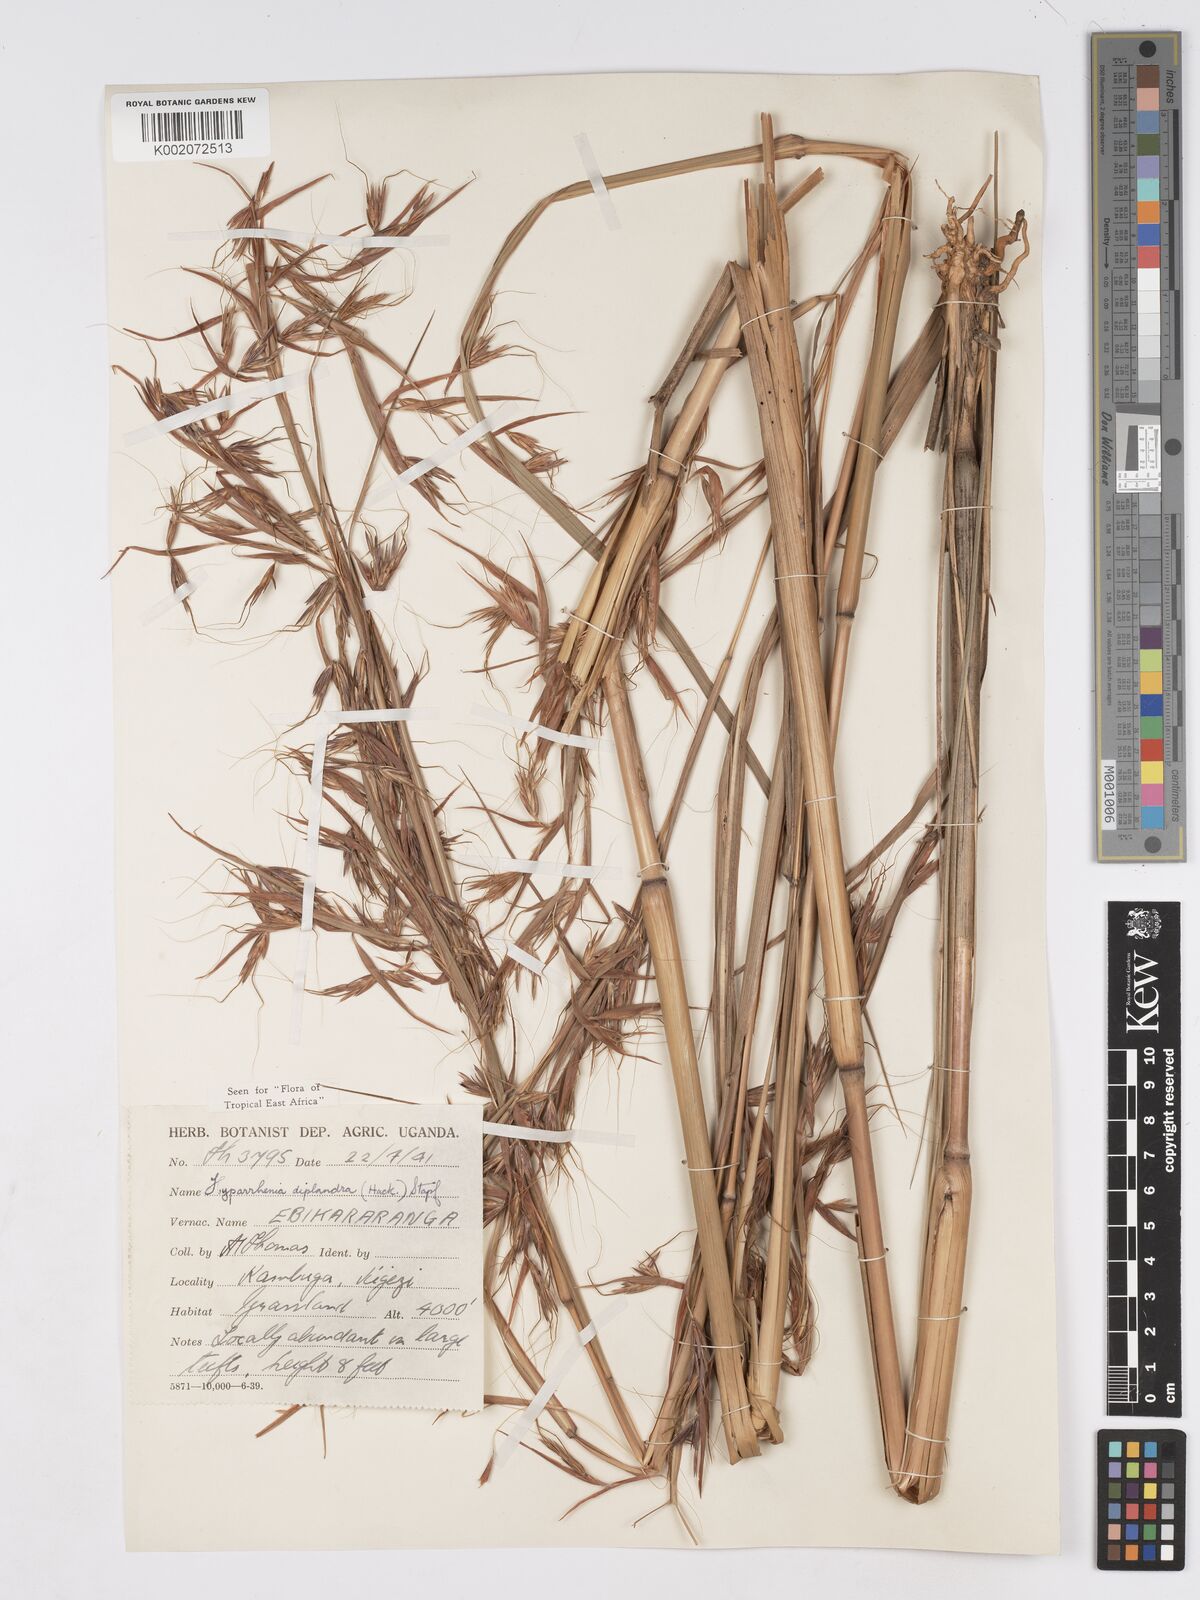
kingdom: Plantae
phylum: Tracheophyta
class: Liliopsida
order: Poales
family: Poaceae
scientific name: Poaceae
